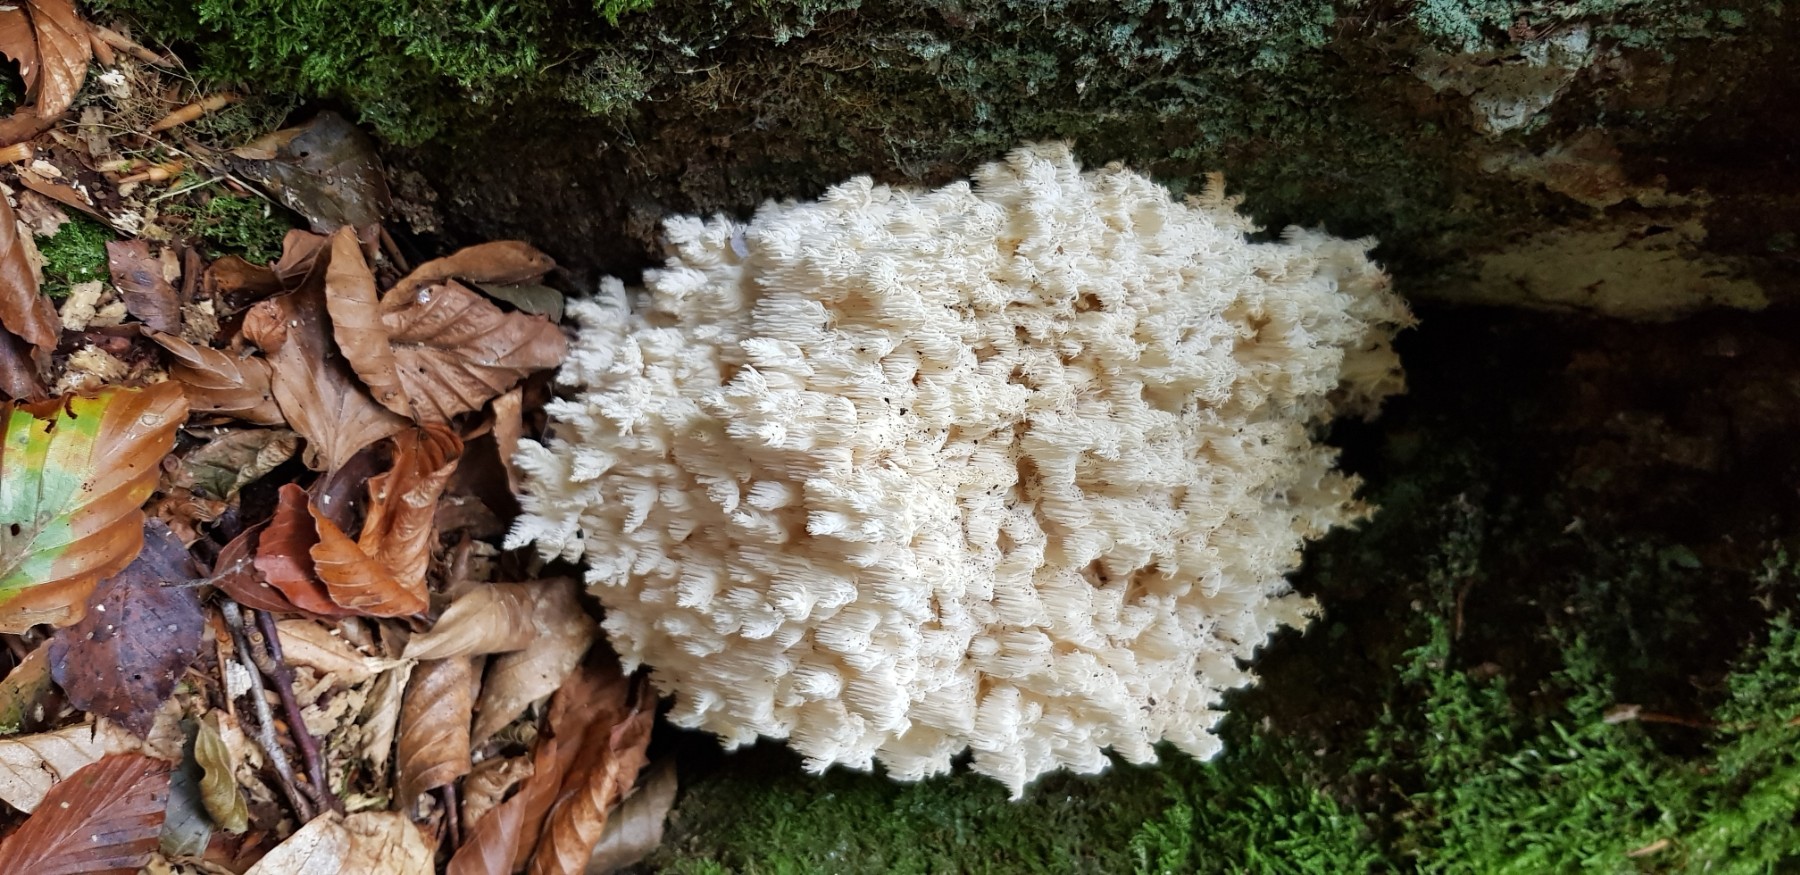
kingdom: Fungi
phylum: Basidiomycota
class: Agaricomycetes
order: Russulales
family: Hericiaceae
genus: Hericium
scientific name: Hericium coralloides
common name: koralpigsvamp
